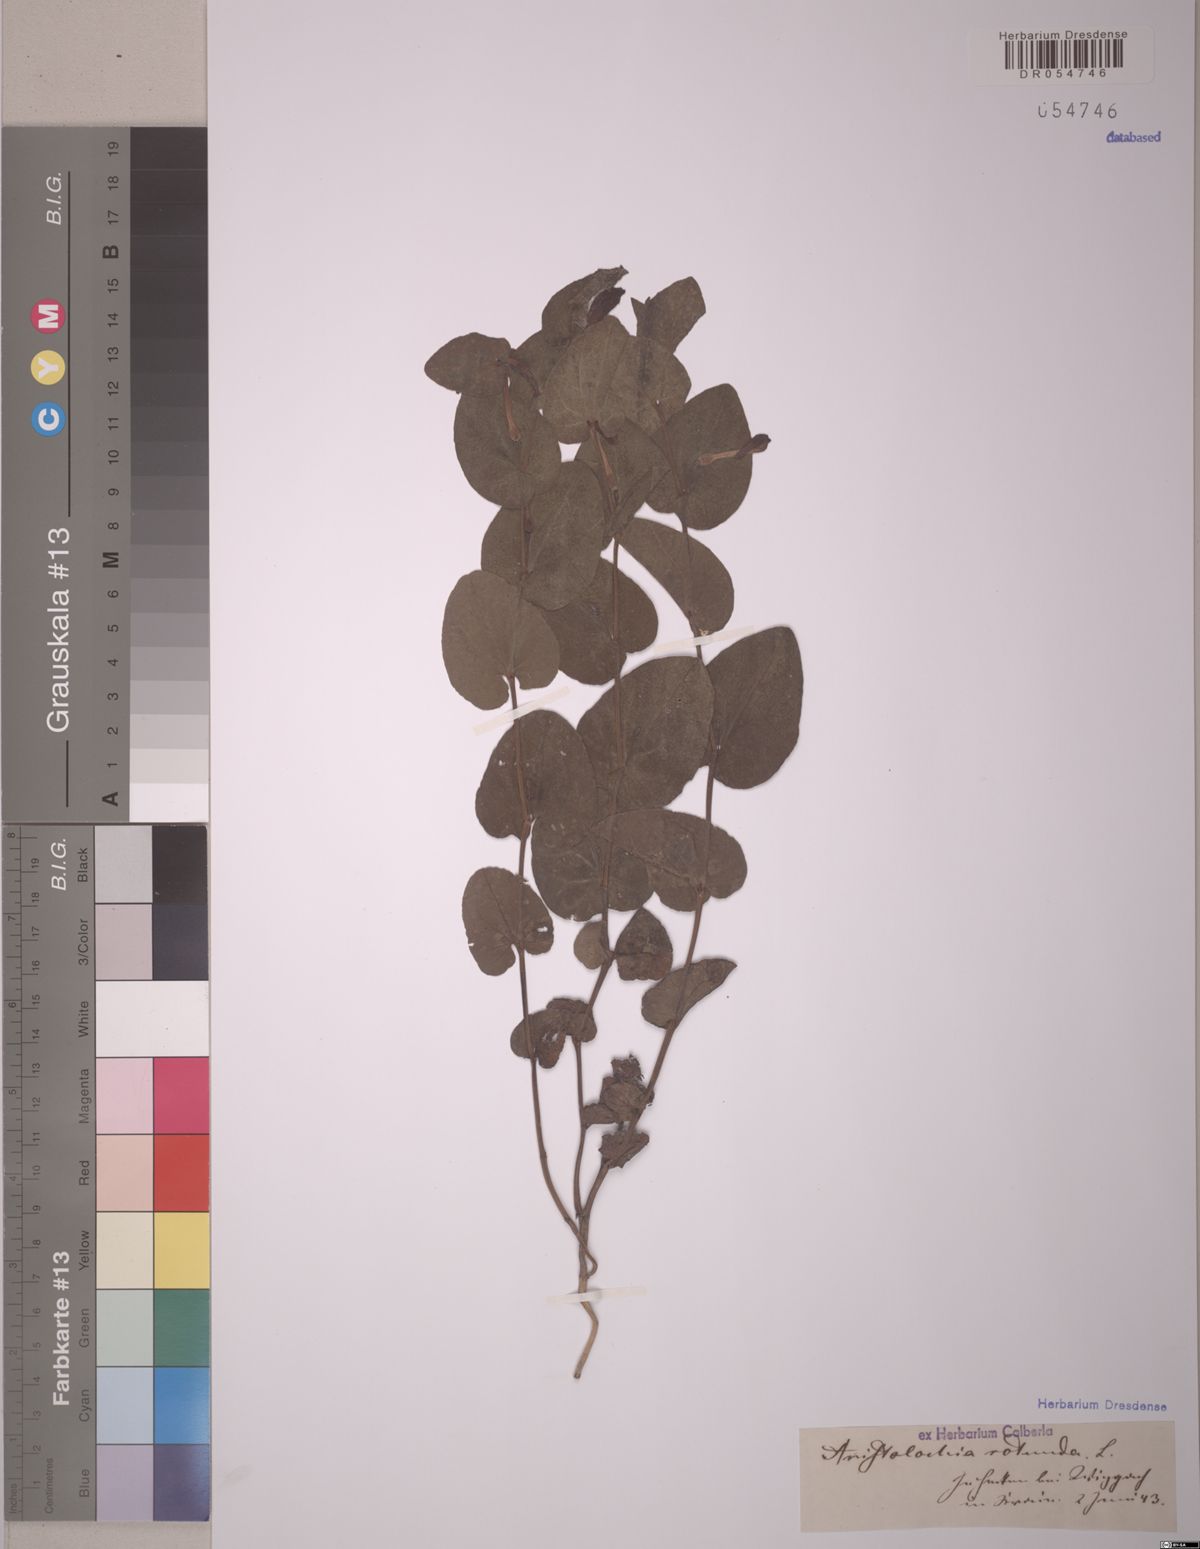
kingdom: Plantae
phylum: Tracheophyta
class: Magnoliopsida
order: Piperales
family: Aristolochiaceae
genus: Aristolochia
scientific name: Aristolochia rotunda
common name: Smearwort
